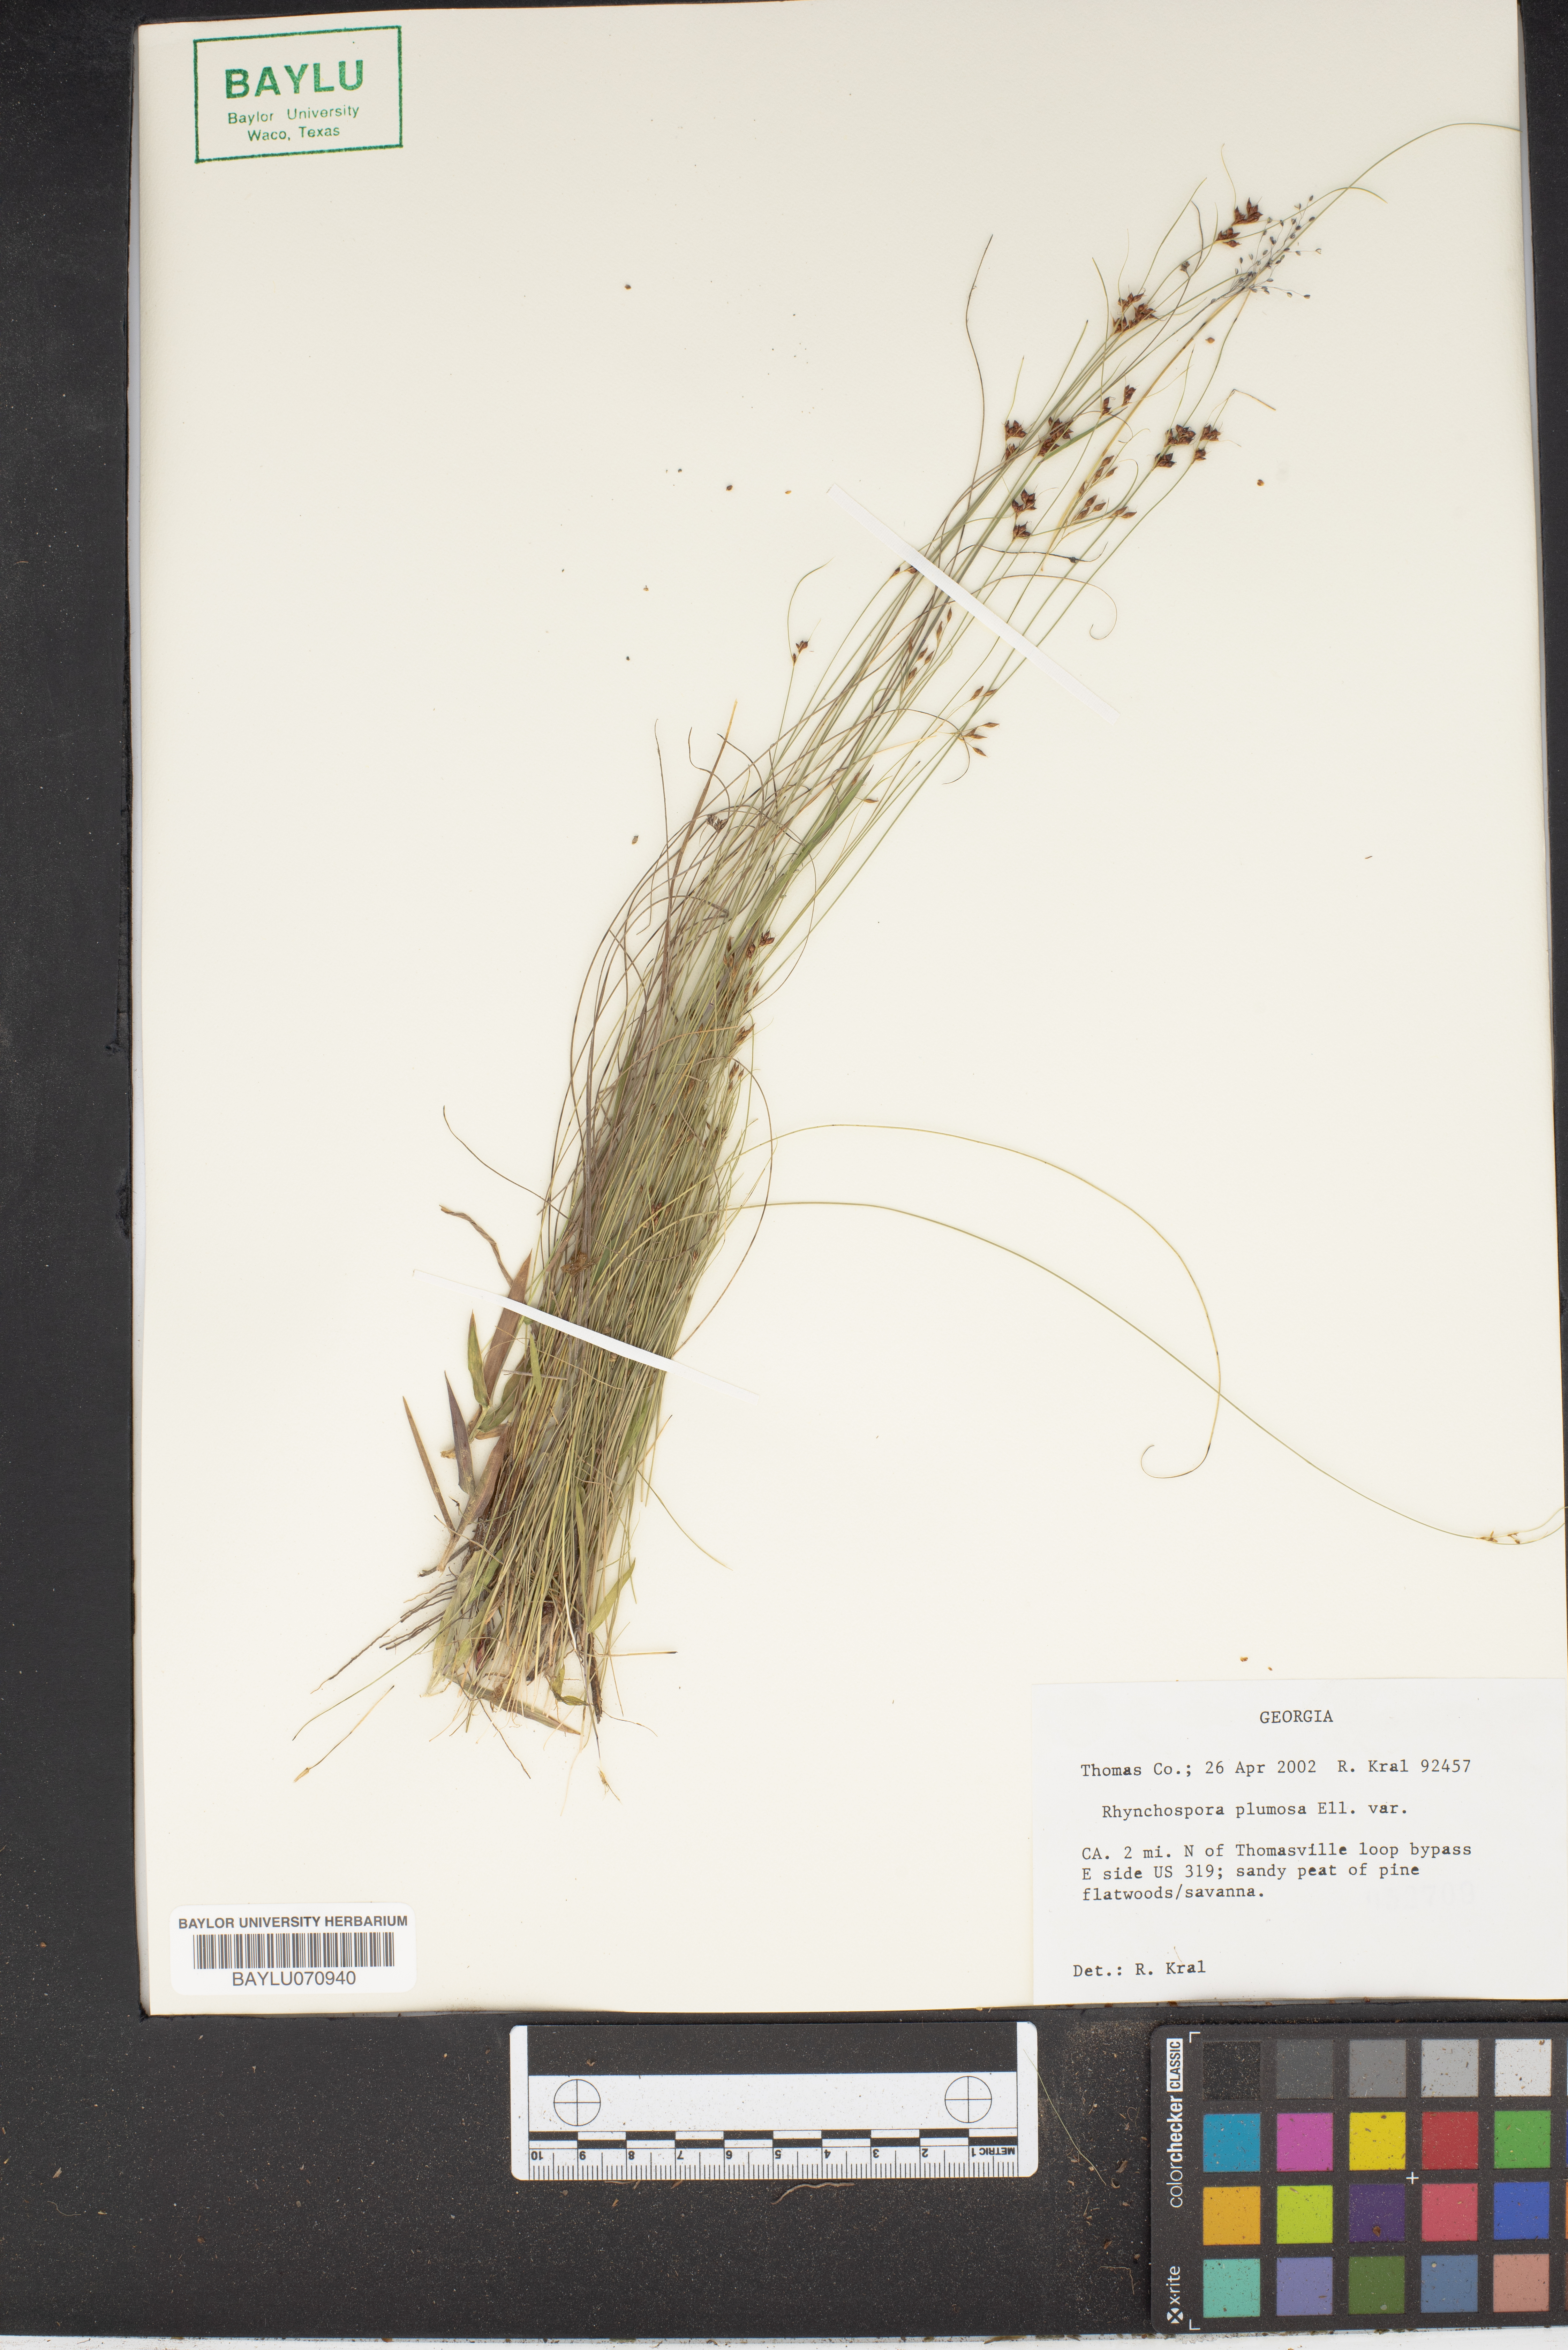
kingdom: Plantae
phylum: Tracheophyta
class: Liliopsida
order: Poales
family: Cyperaceae
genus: Rhynchospora
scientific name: Rhynchospora plumosa
